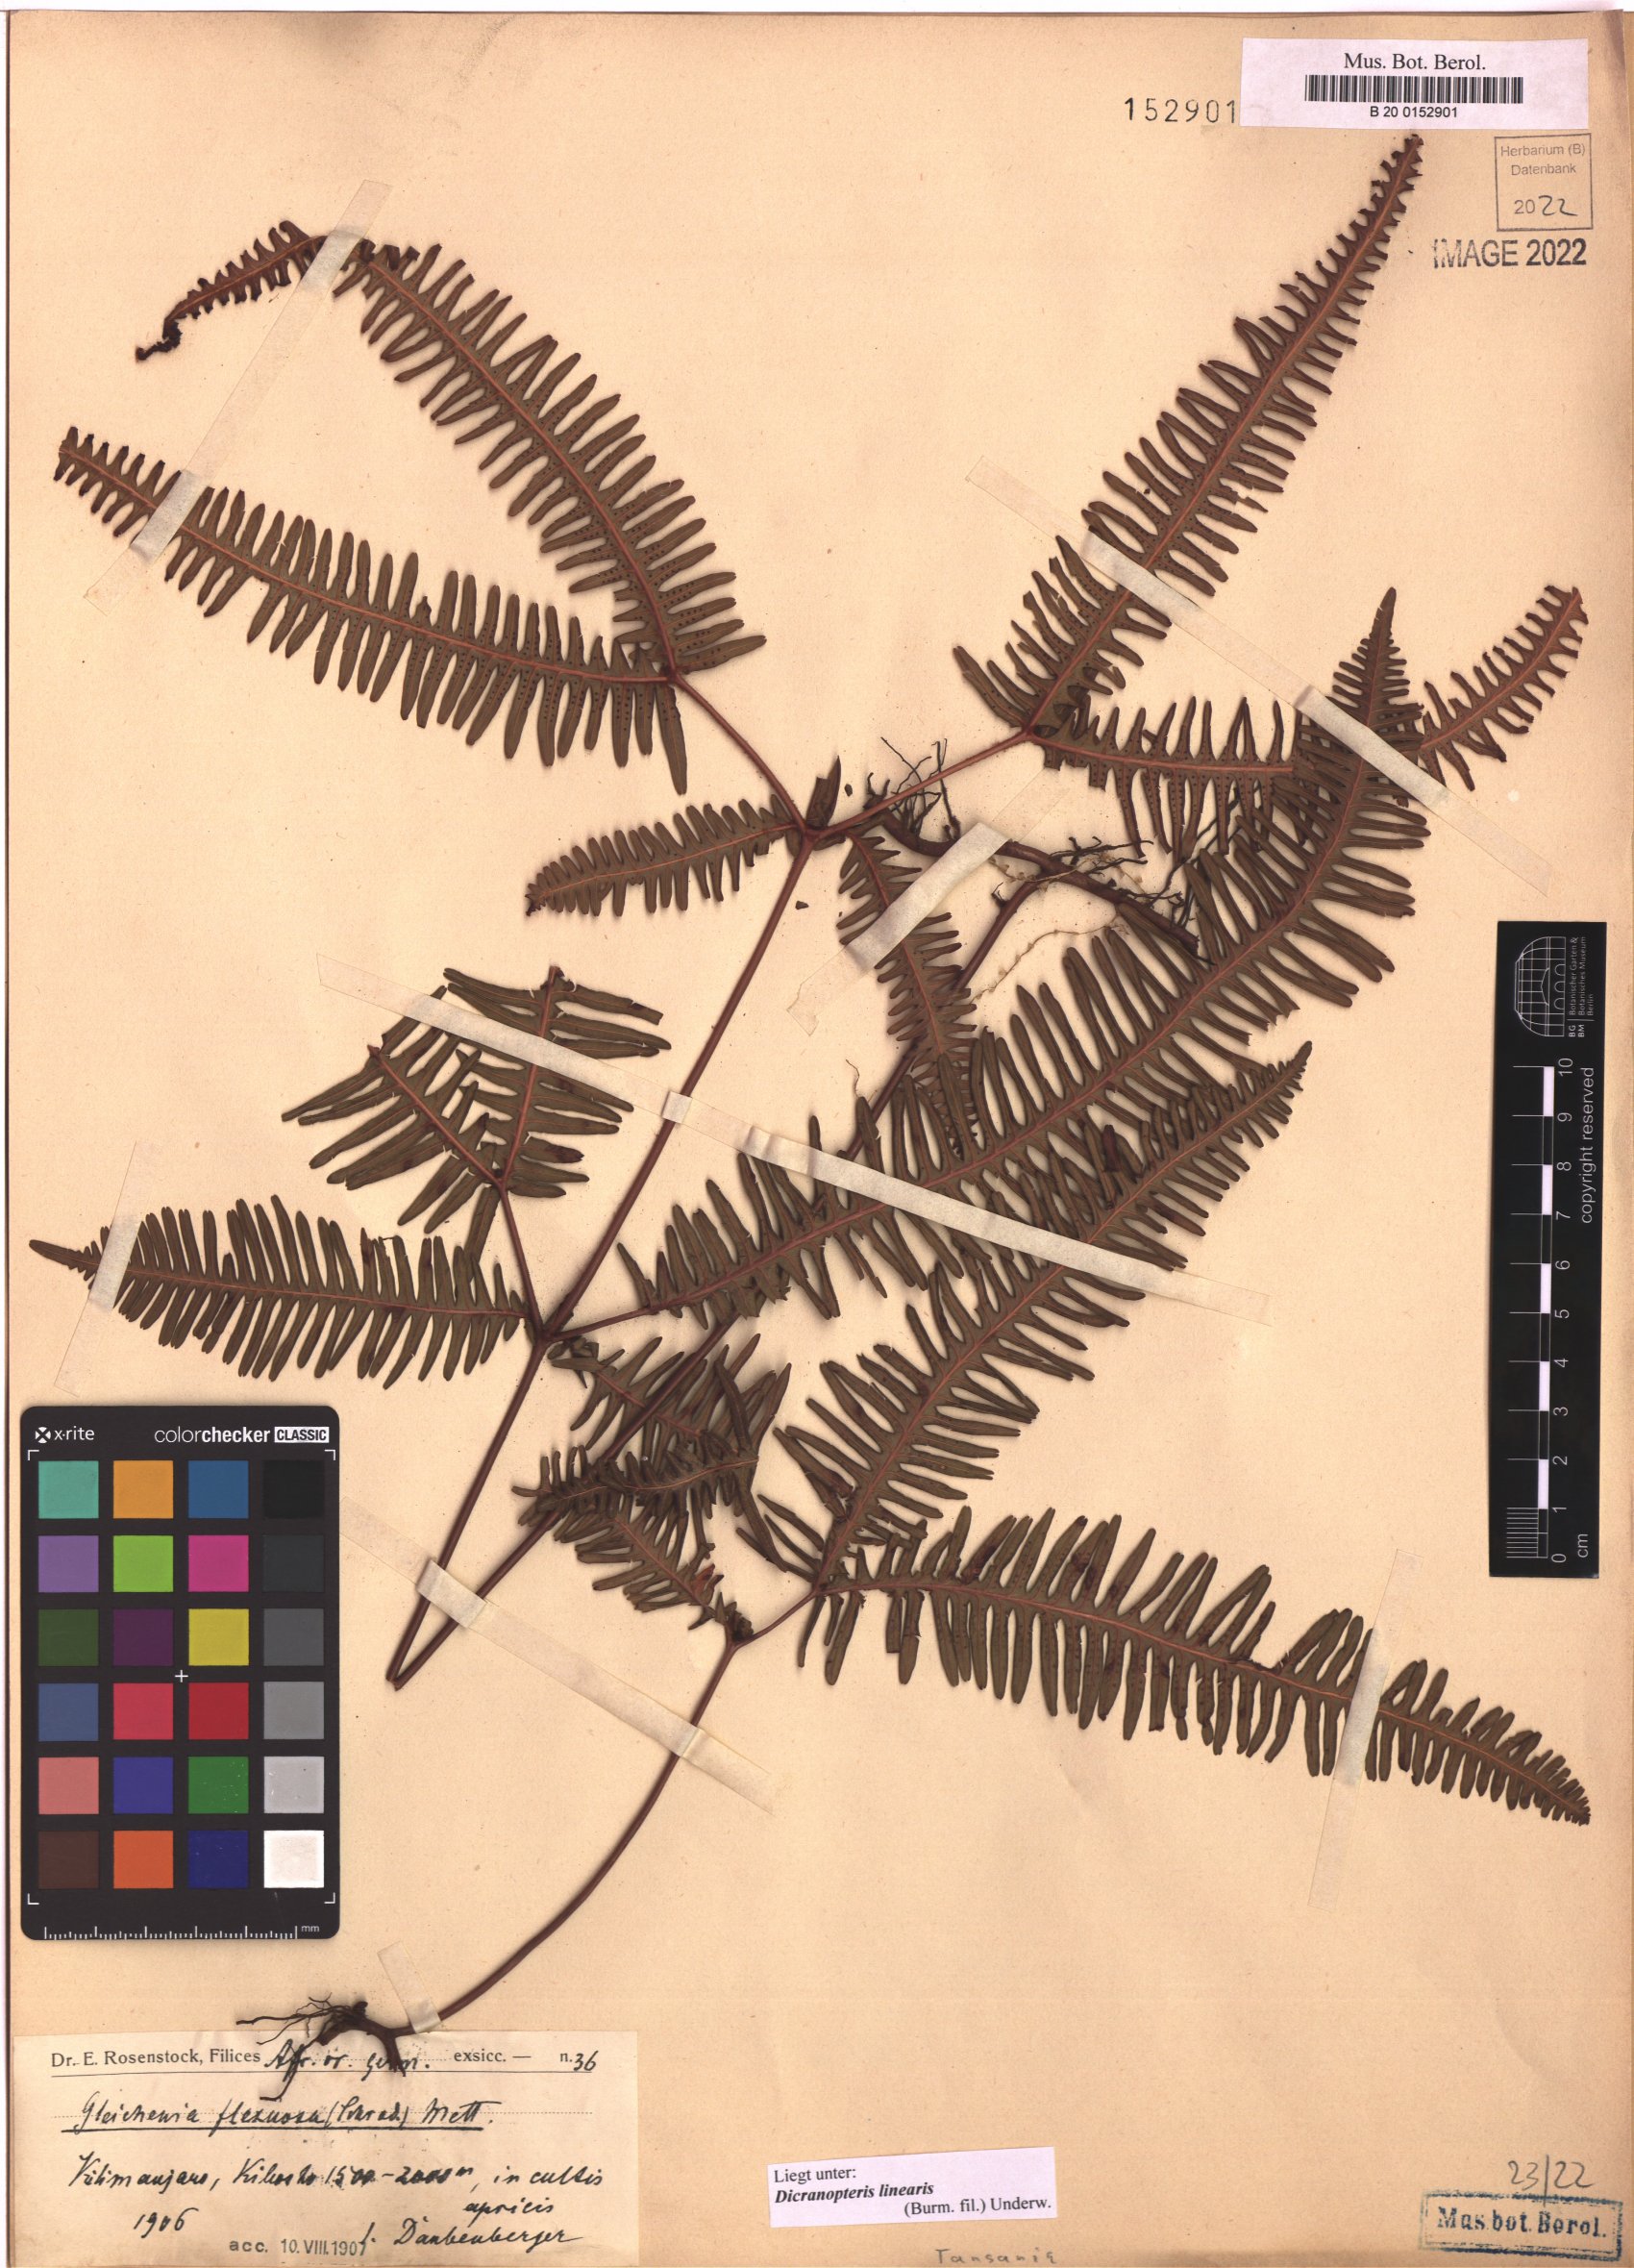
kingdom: Plantae
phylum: Tracheophyta
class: Polypodiopsida
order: Gleicheniales
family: Gleicheniaceae
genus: Dicranopteris
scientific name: Dicranopteris linearis
